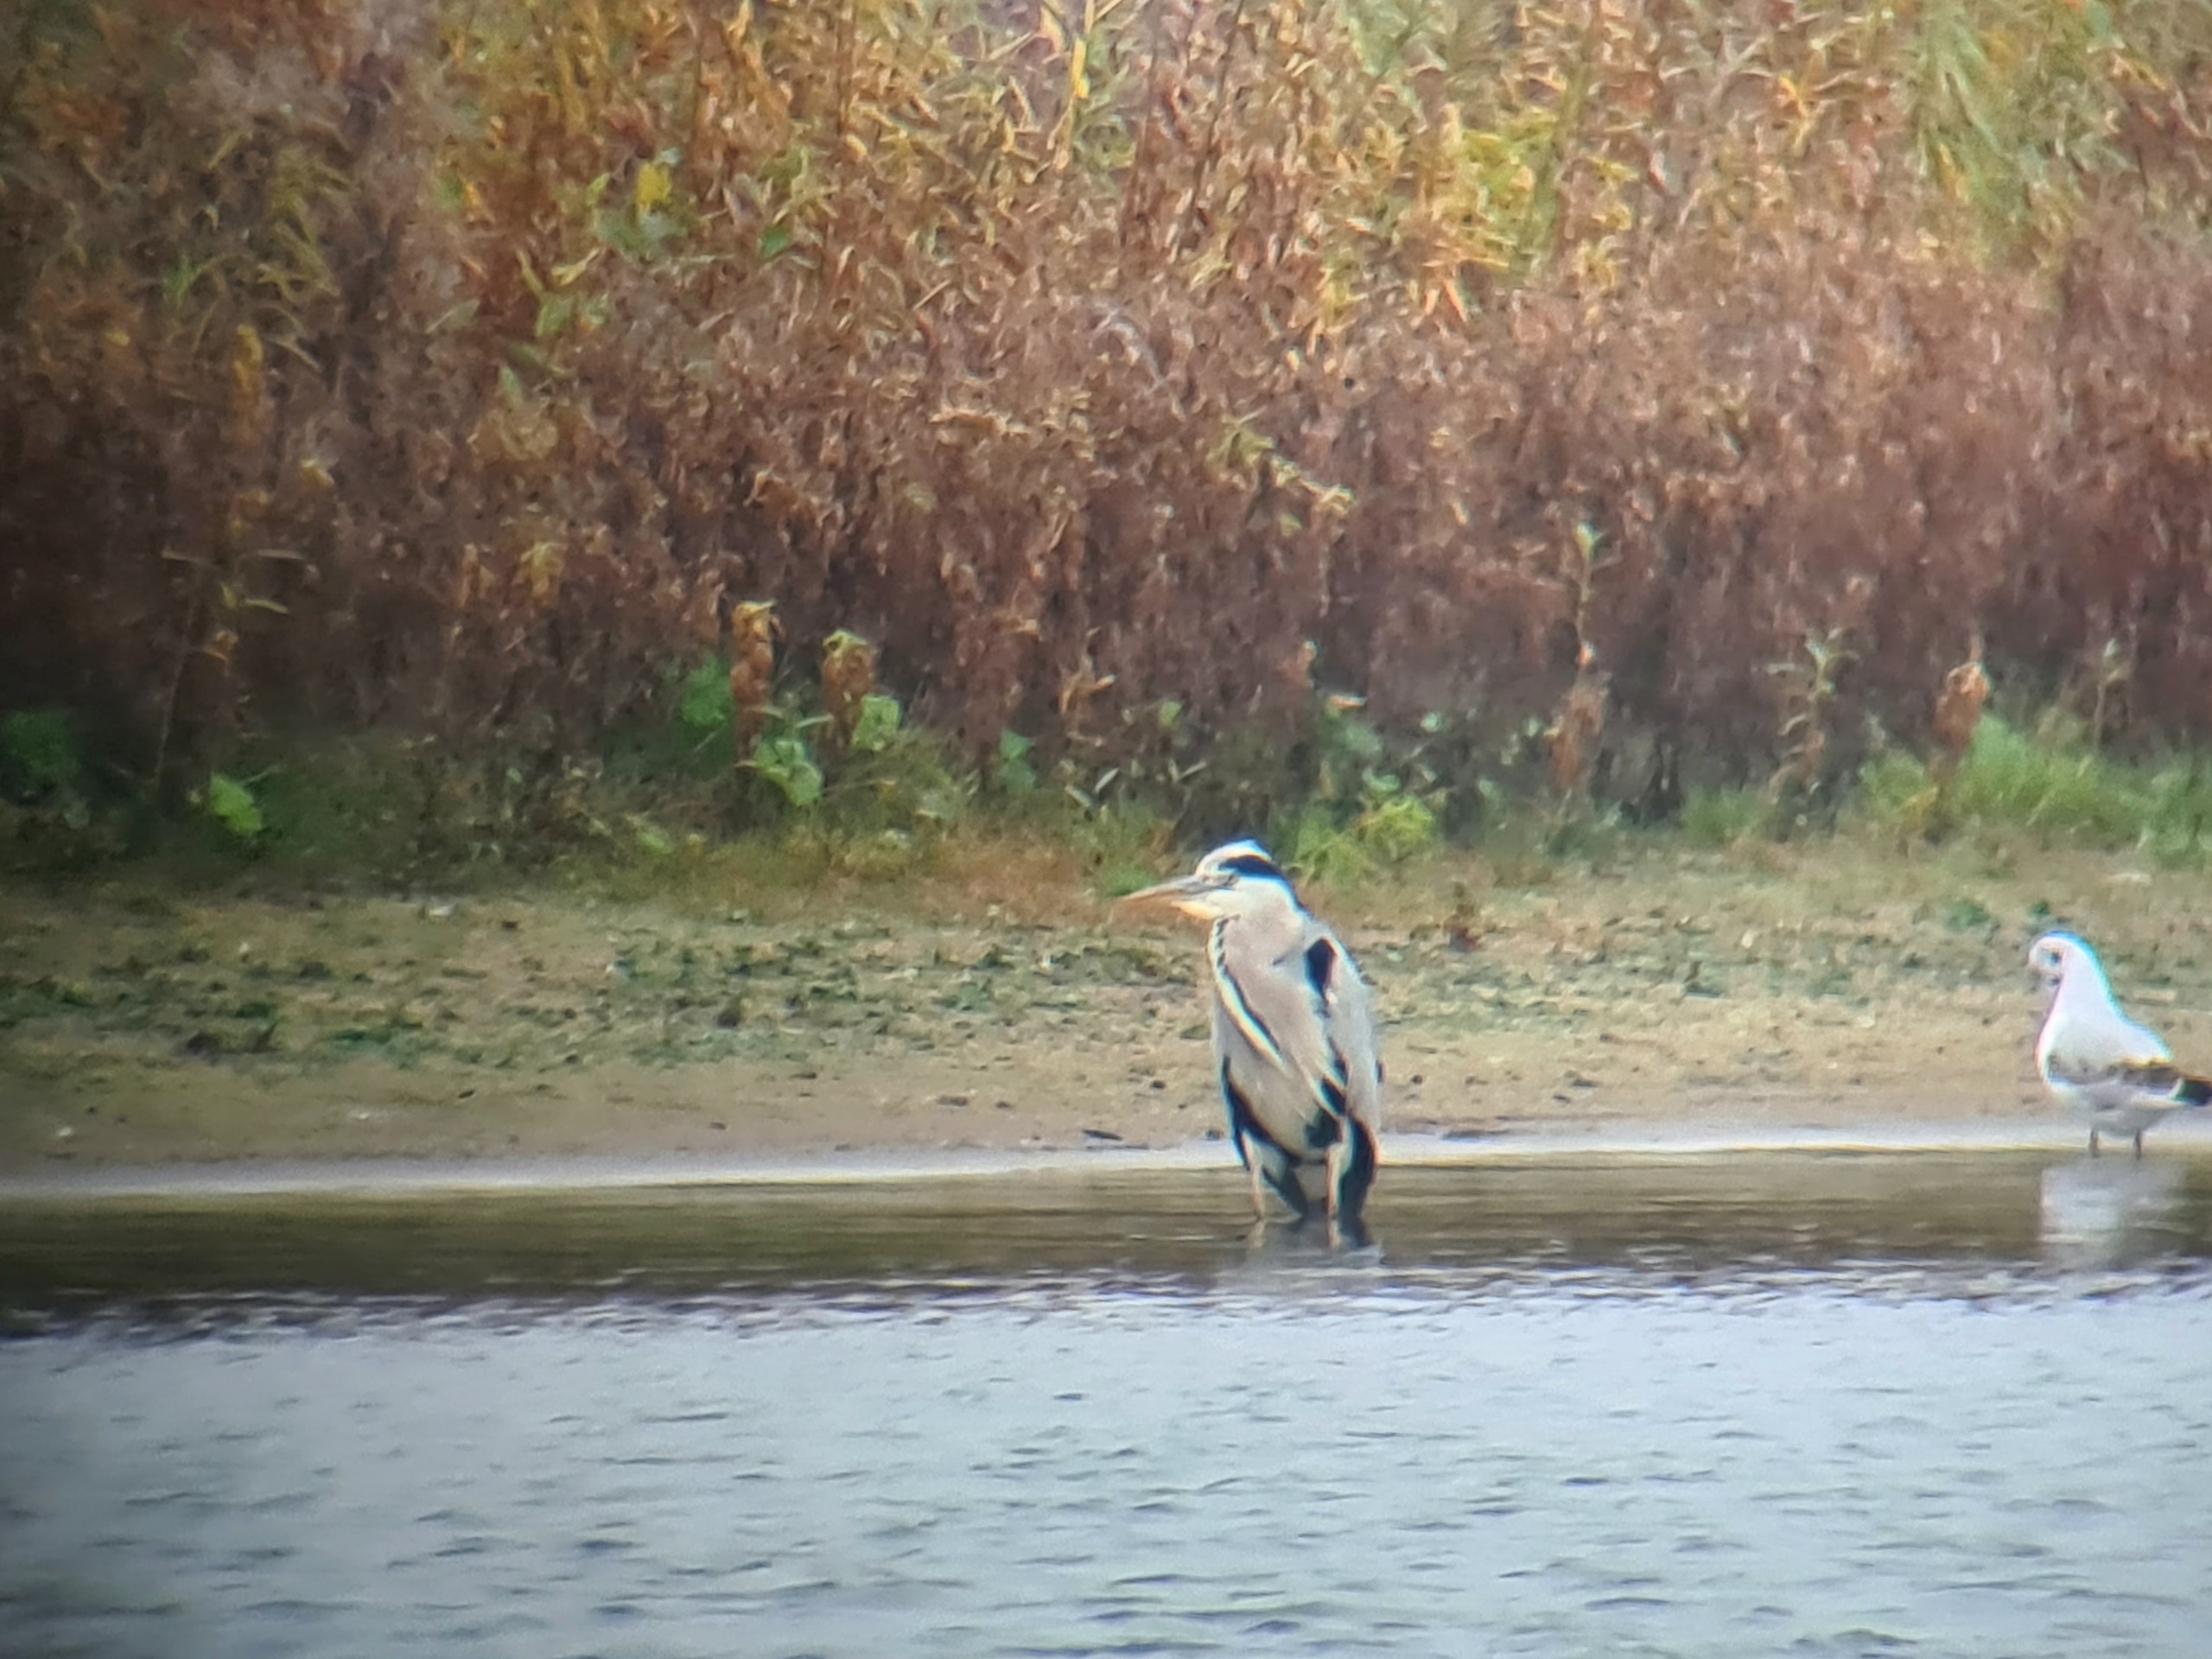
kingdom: Animalia
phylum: Chordata
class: Aves
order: Pelecaniformes
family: Ardeidae
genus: Ardea
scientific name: Ardea cinerea
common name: Fiskehejre
